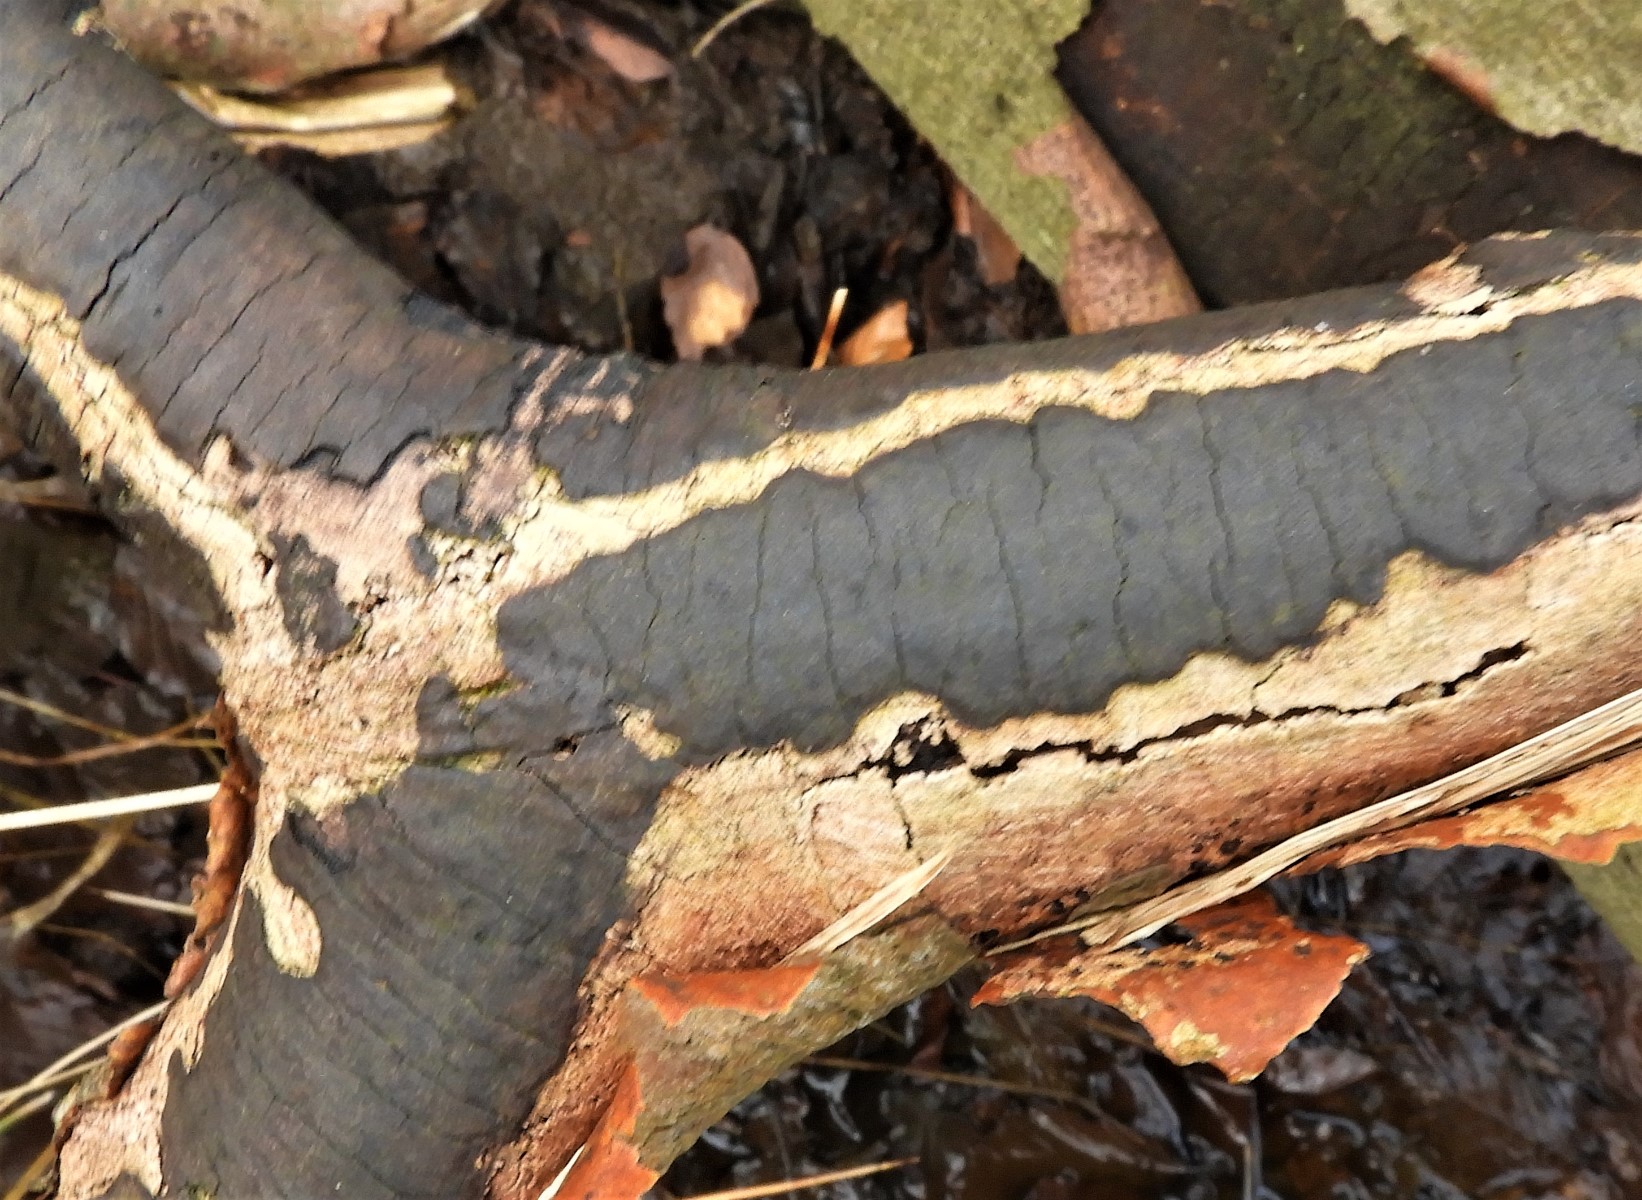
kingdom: Fungi
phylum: Ascomycota
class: Sordariomycetes
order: Xylariales
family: Diatrypaceae
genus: Diatrype
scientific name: Diatrype decorticata
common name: barksprænger-kulskorpe
